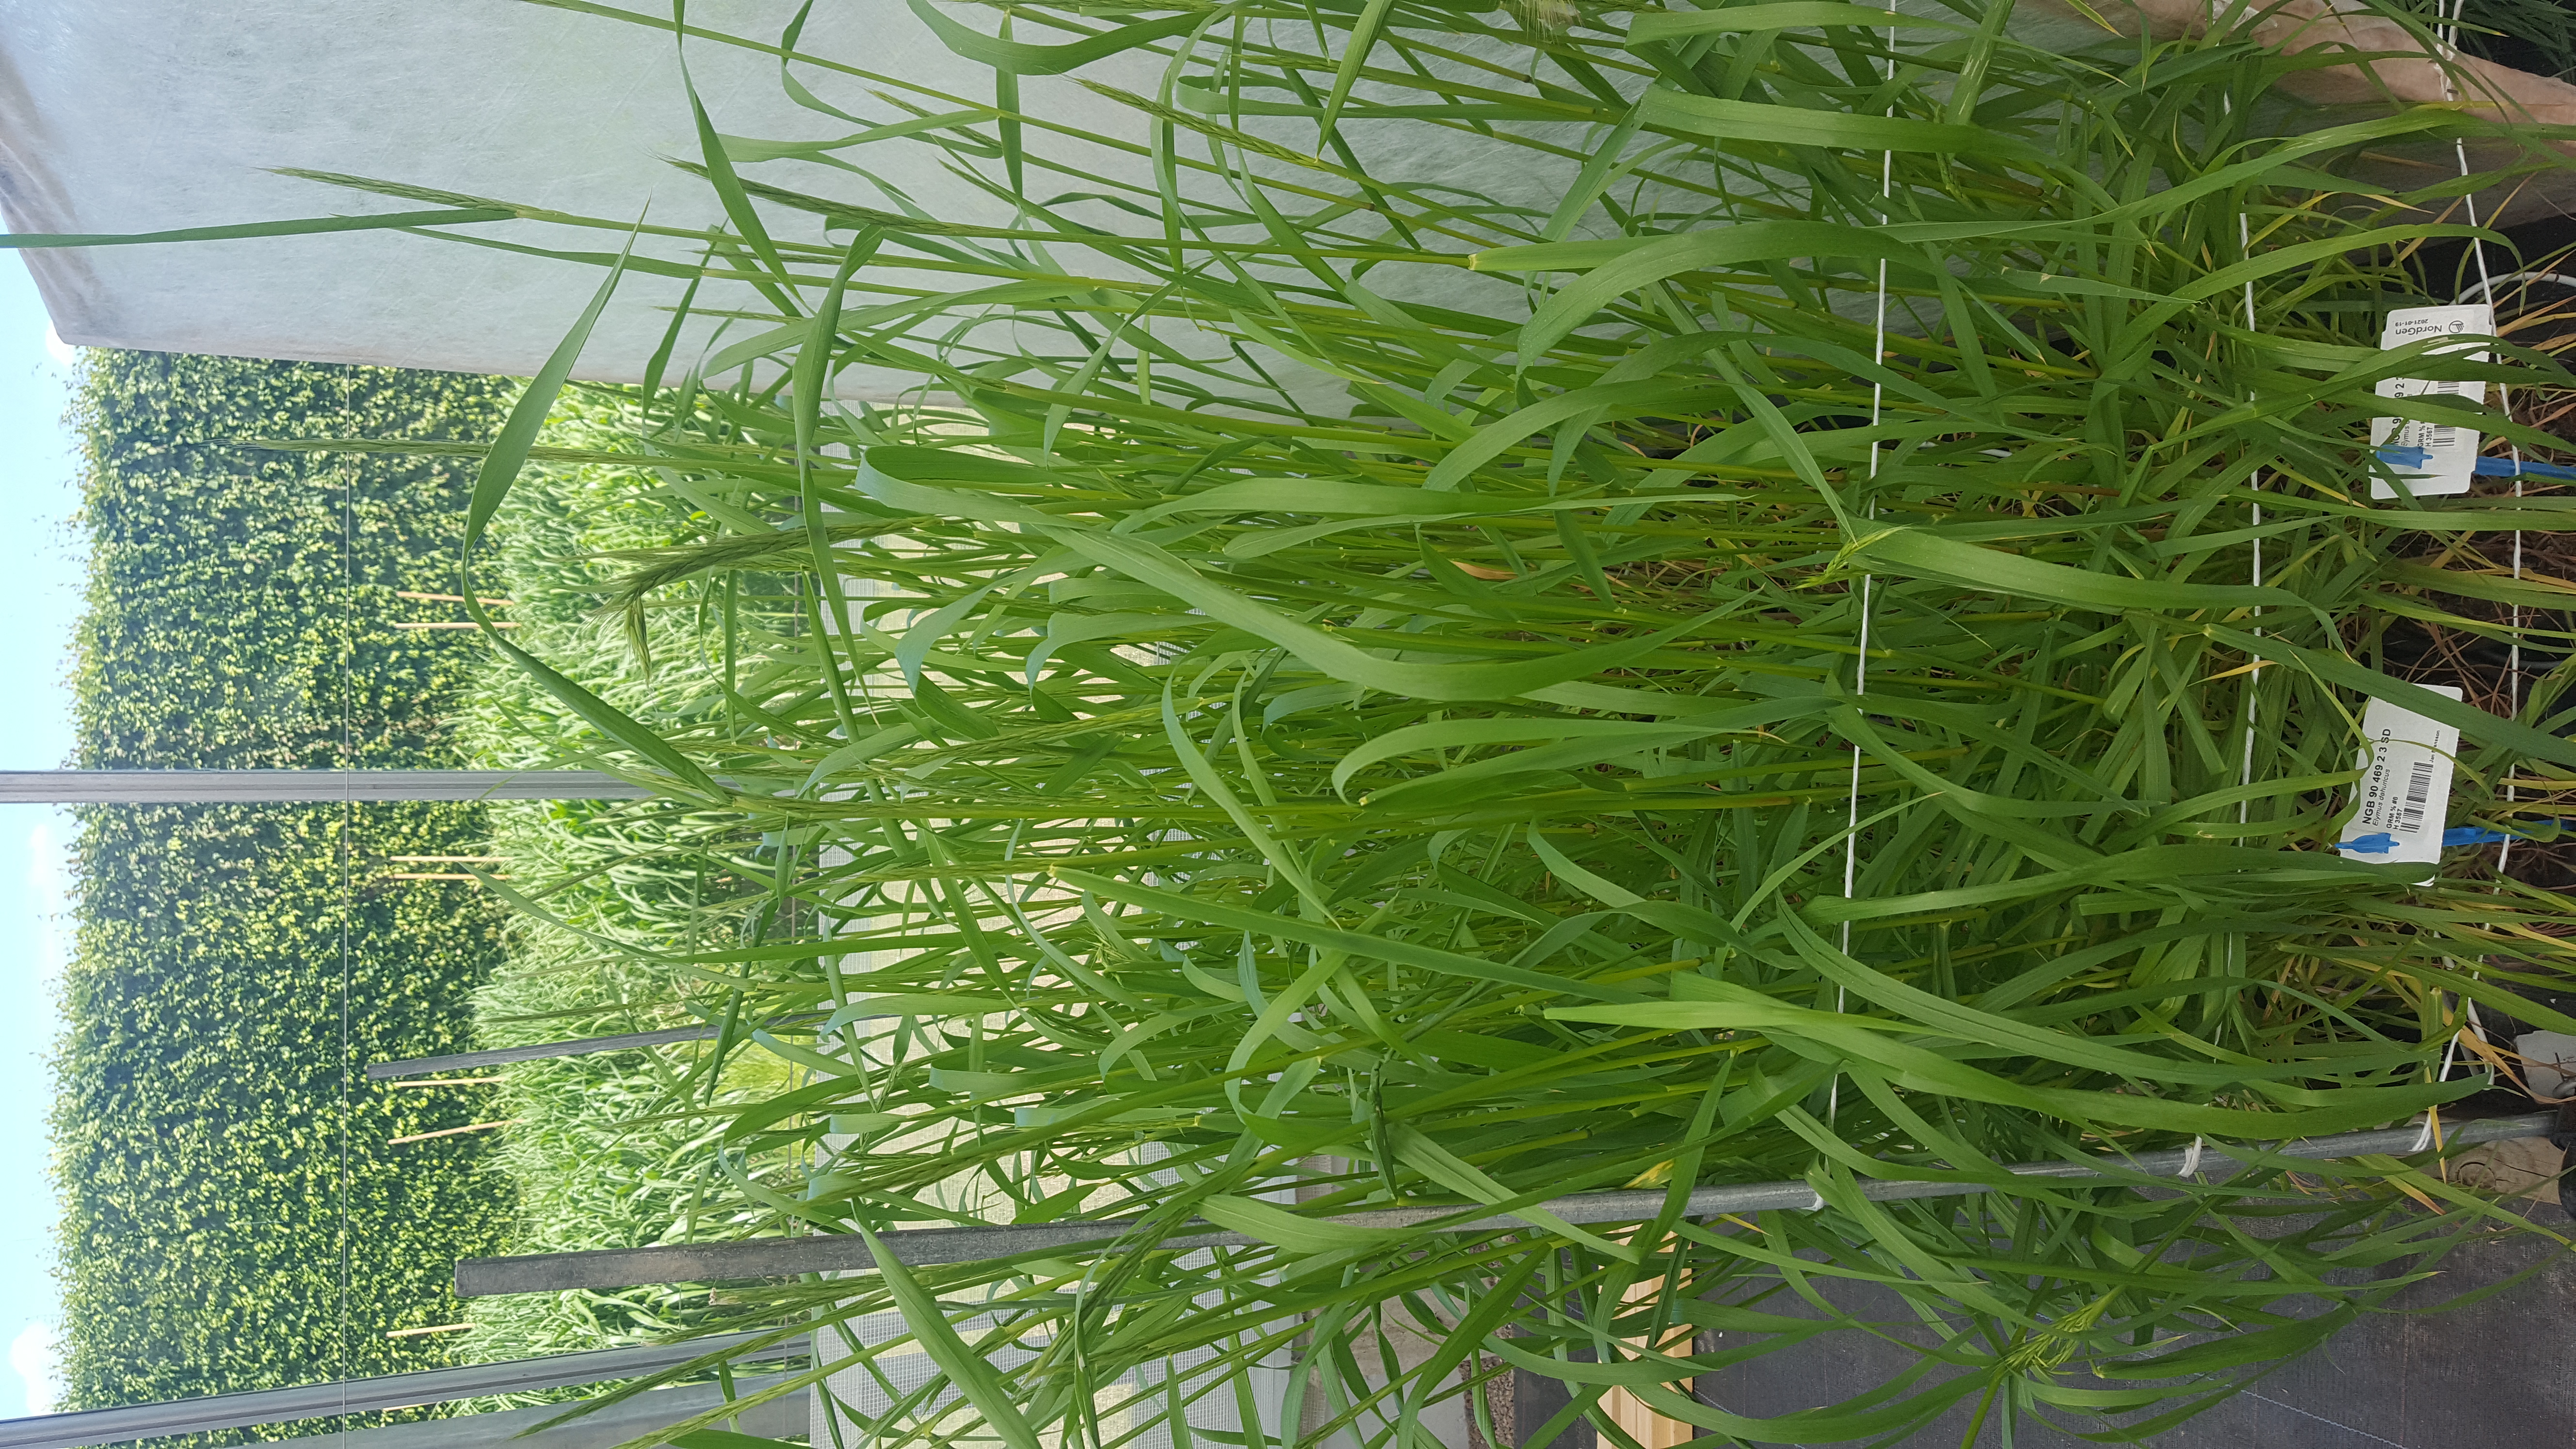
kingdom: Plantae
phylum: Tracheophyta
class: Liliopsida
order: Poales
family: Poaceae
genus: Elymus
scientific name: Elymus dahuricus
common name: Dahurian wild rye
